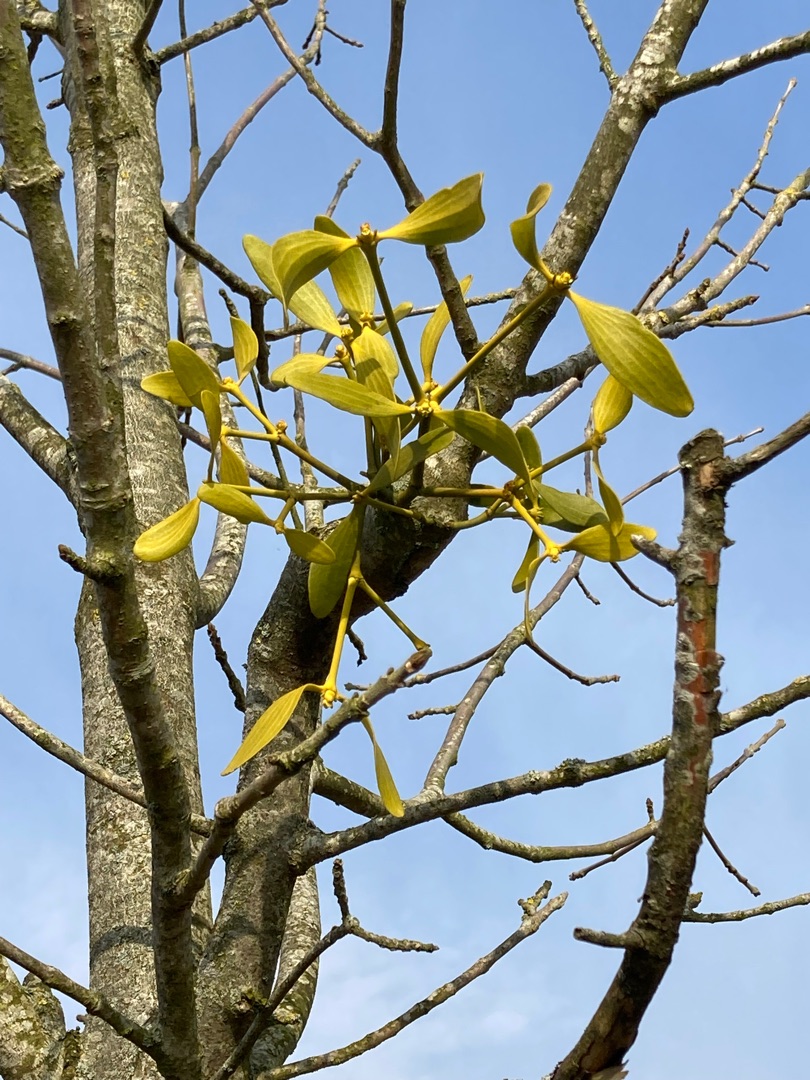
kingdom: Plantae
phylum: Tracheophyta
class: Magnoliopsida
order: Santalales
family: Viscaceae
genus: Viscum
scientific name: Viscum album
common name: Mistelten
